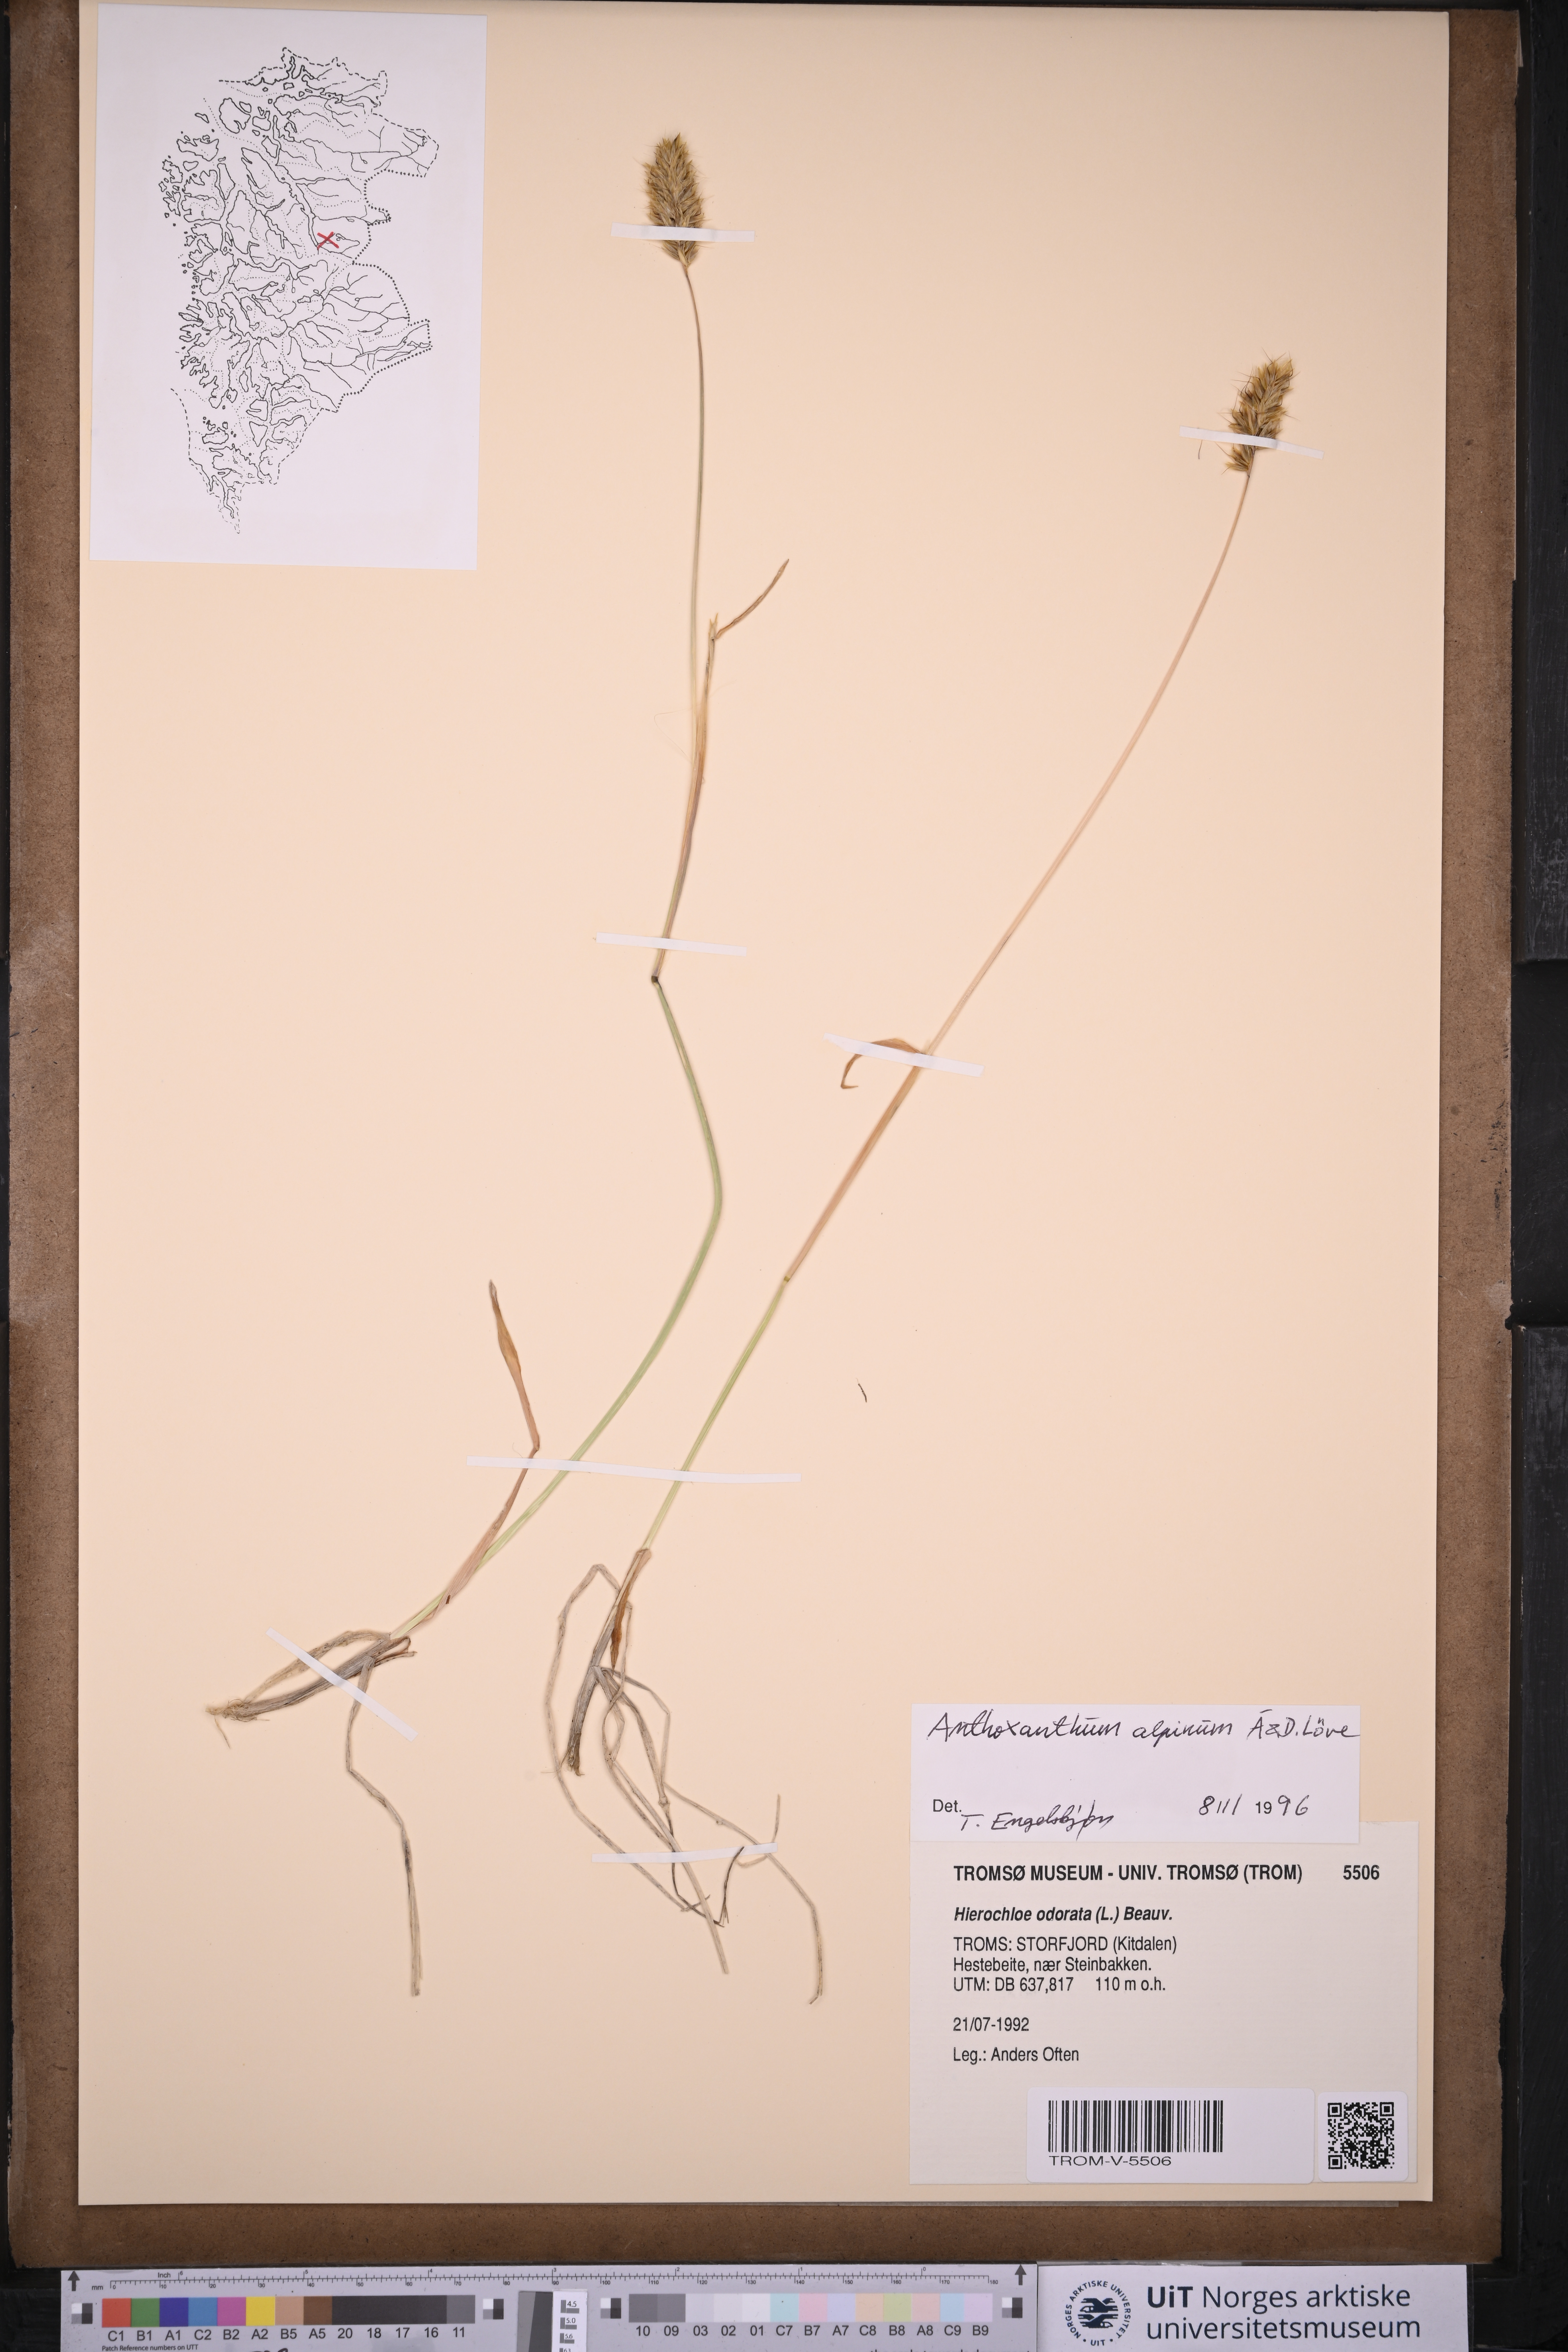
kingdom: Plantae
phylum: Tracheophyta
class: Liliopsida
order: Poales
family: Poaceae
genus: Anthoxanthum
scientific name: Anthoxanthum nipponicum
